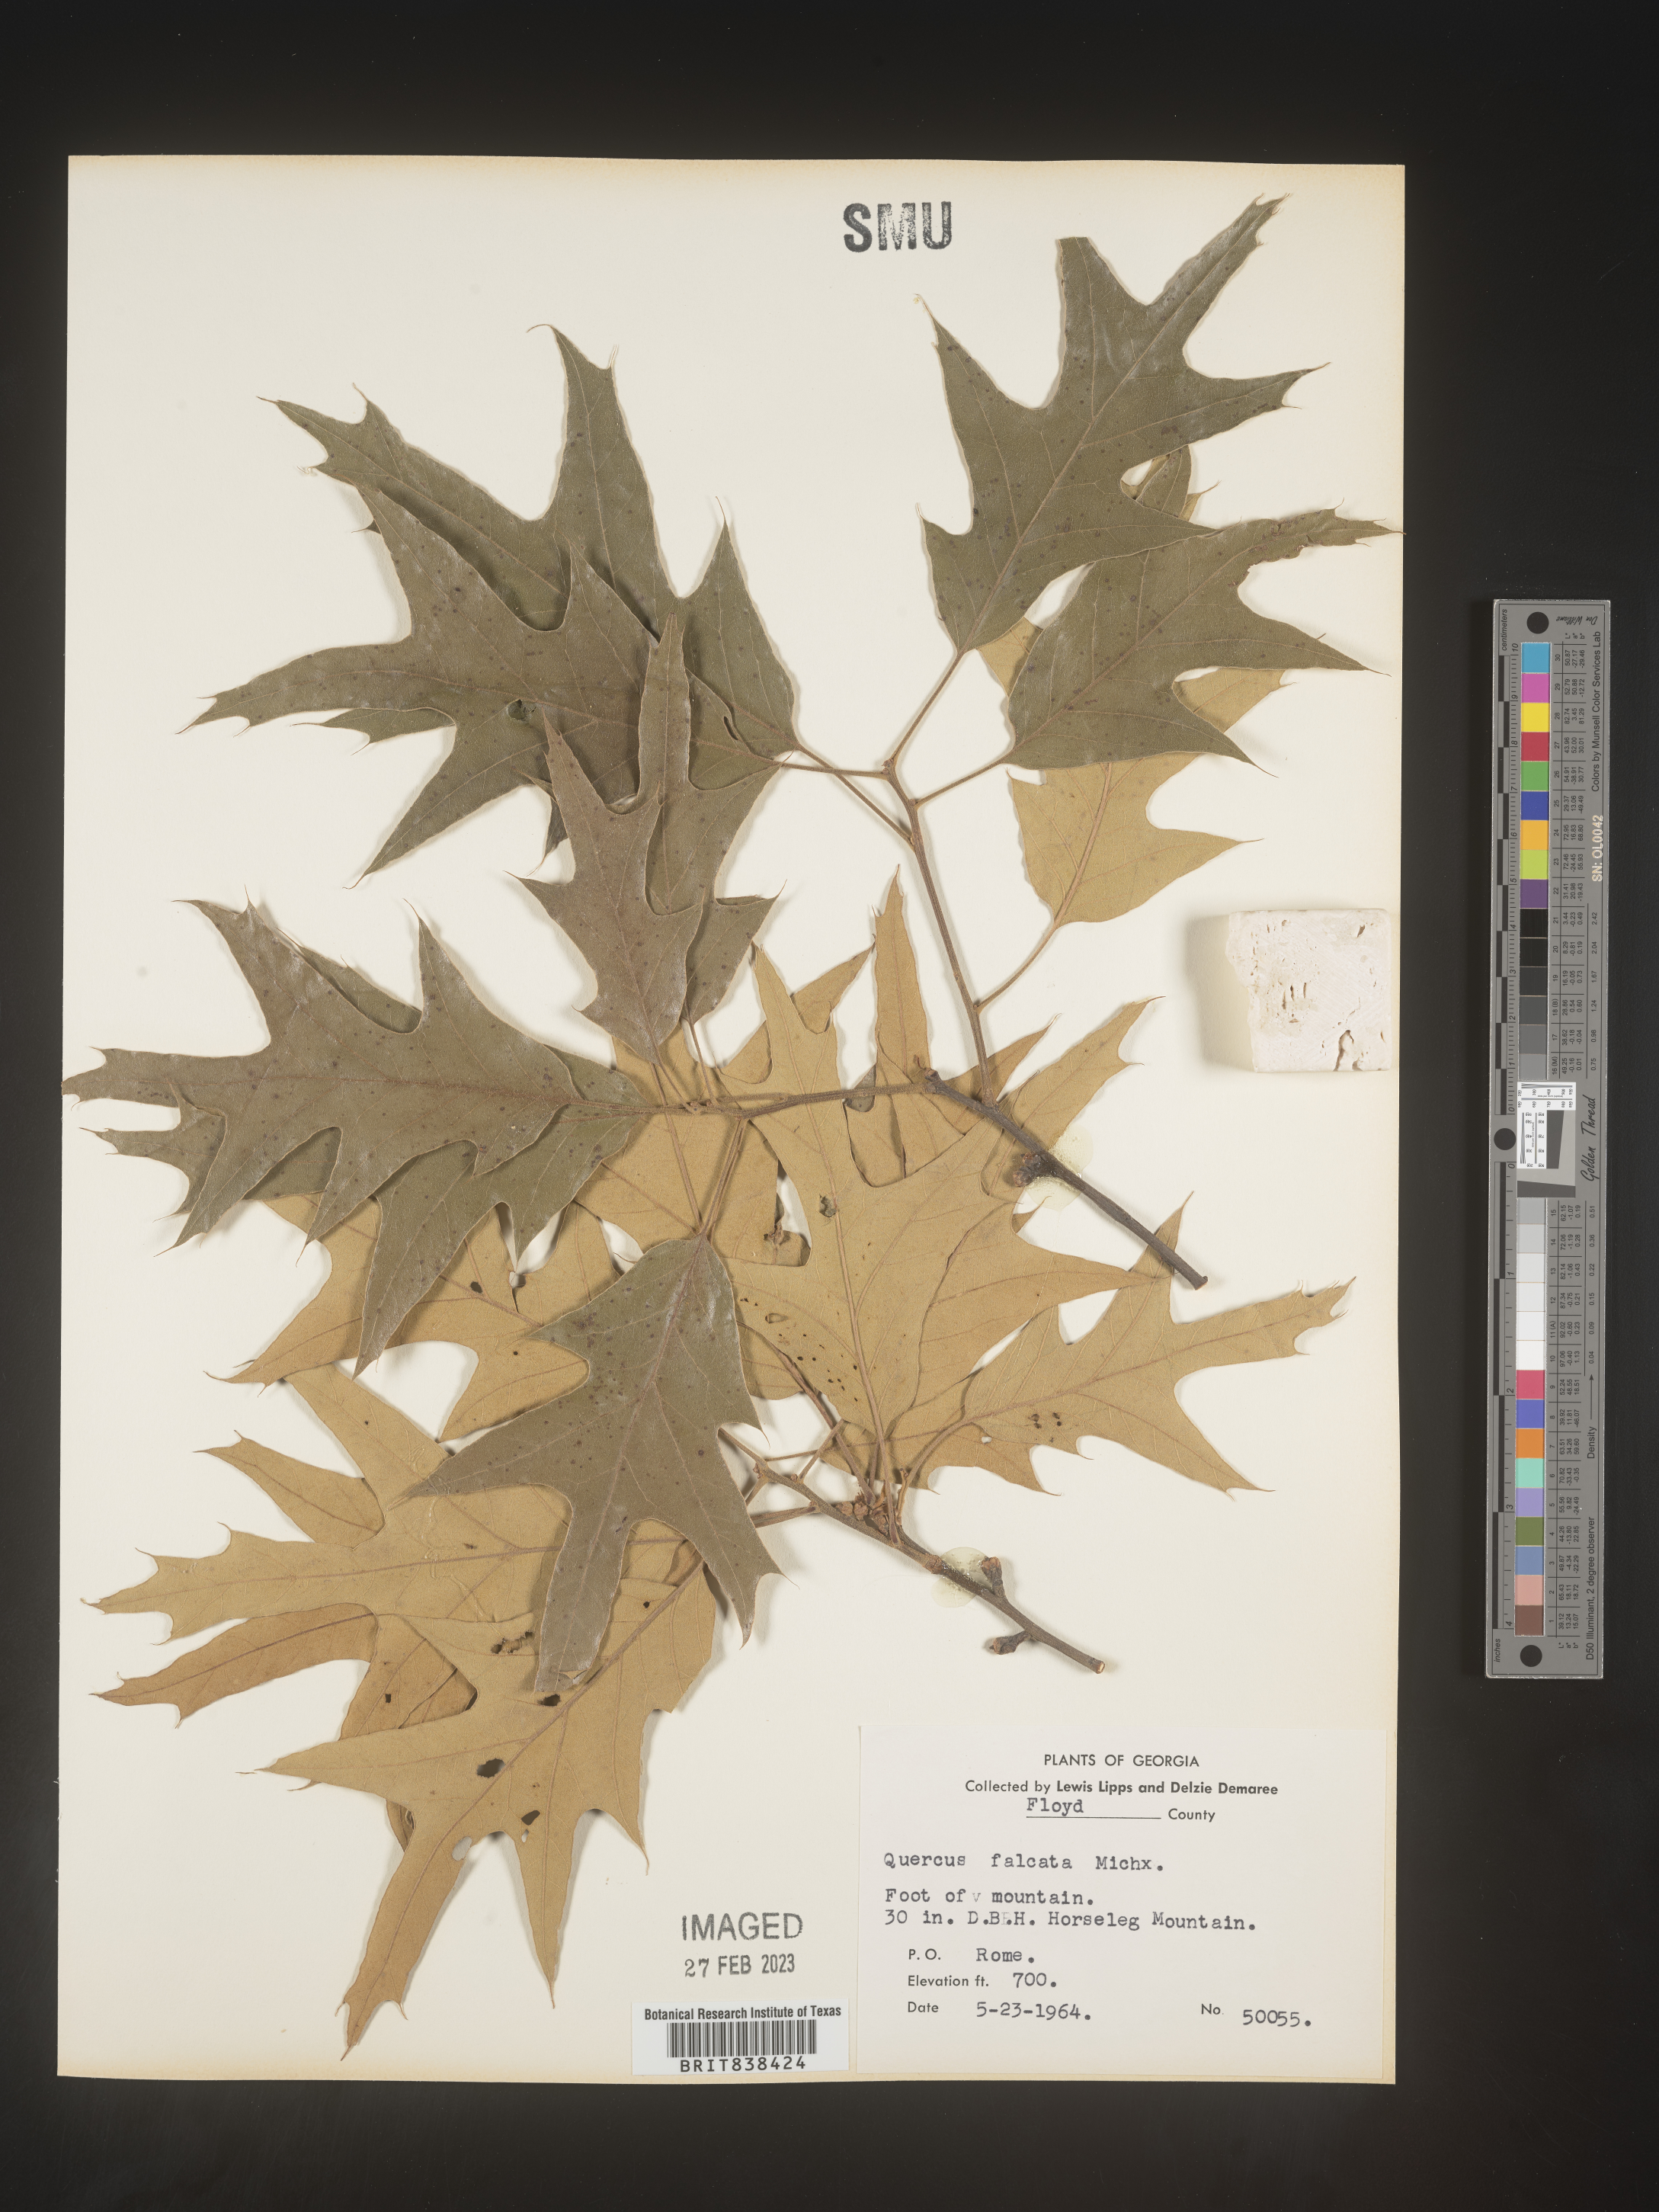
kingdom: Plantae
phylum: Tracheophyta
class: Magnoliopsida
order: Fagales
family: Fagaceae
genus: Quercus
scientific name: Quercus falcata
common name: Southern red oak
